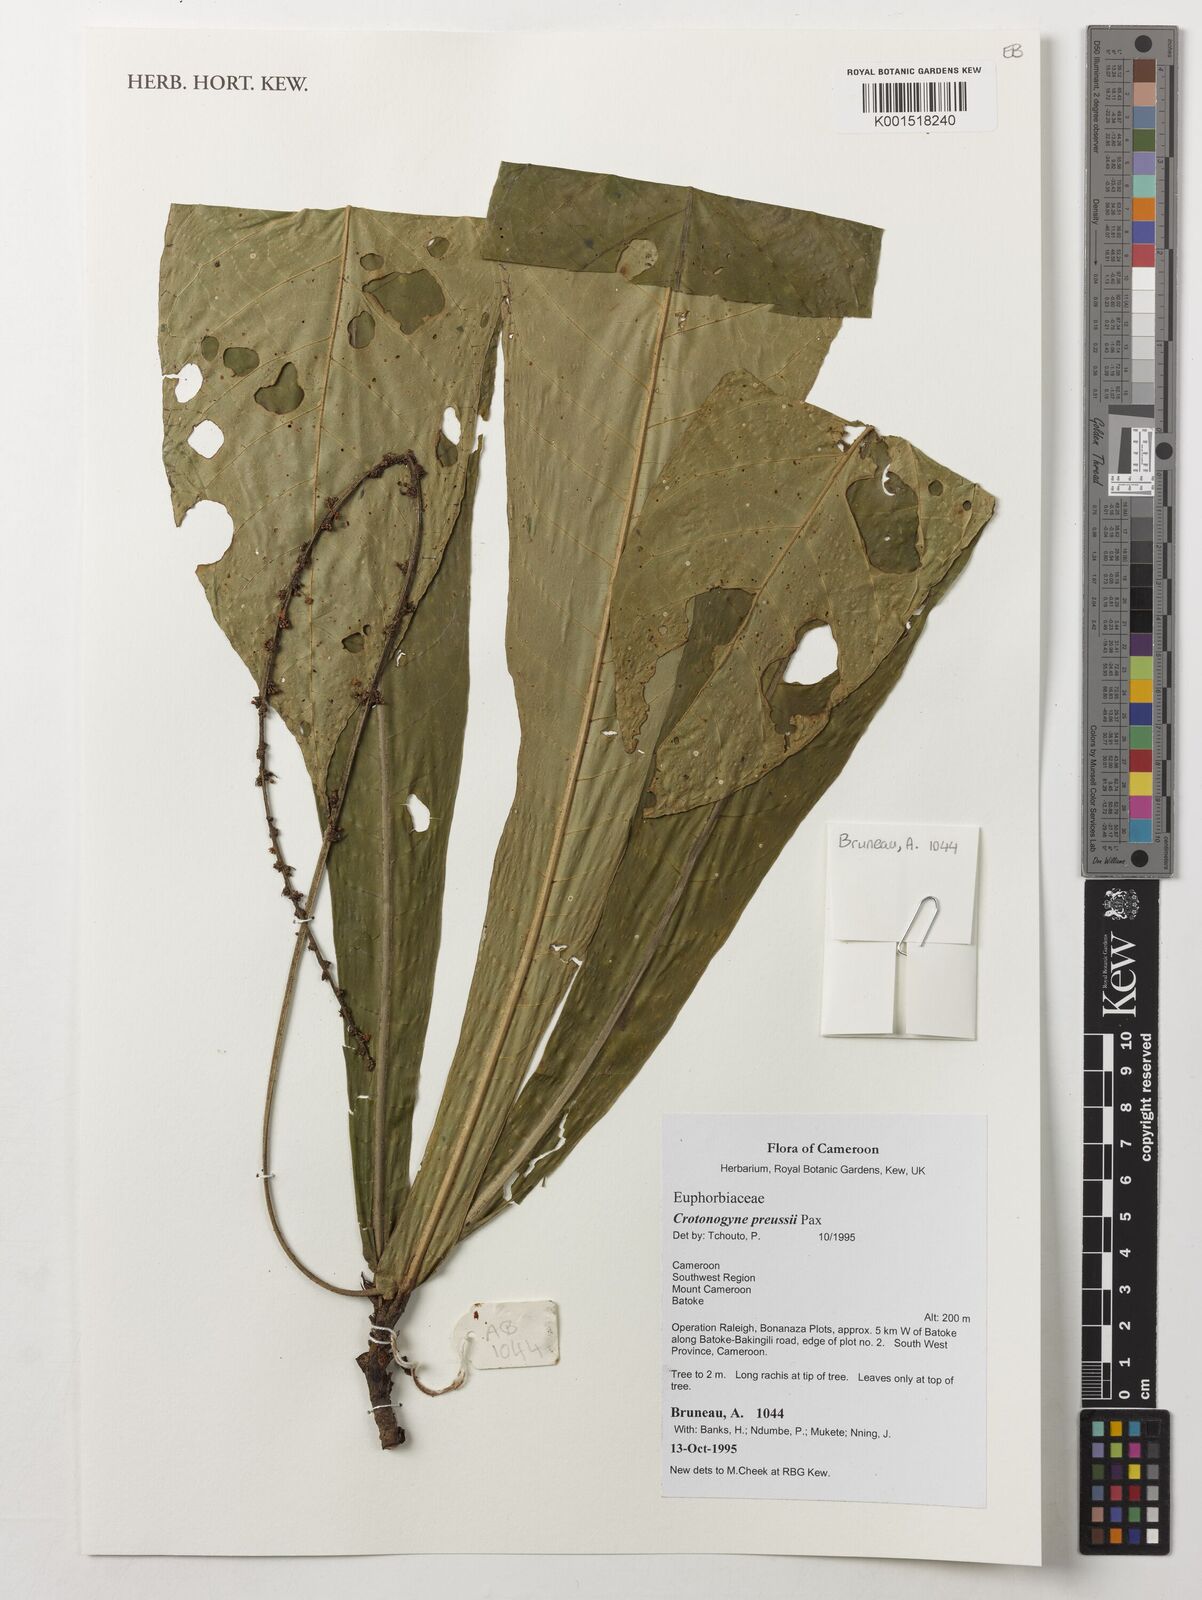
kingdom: Plantae
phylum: Tracheophyta
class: Magnoliopsida
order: Malpighiales
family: Euphorbiaceae
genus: Crotonogyne
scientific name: Crotonogyne preussii
